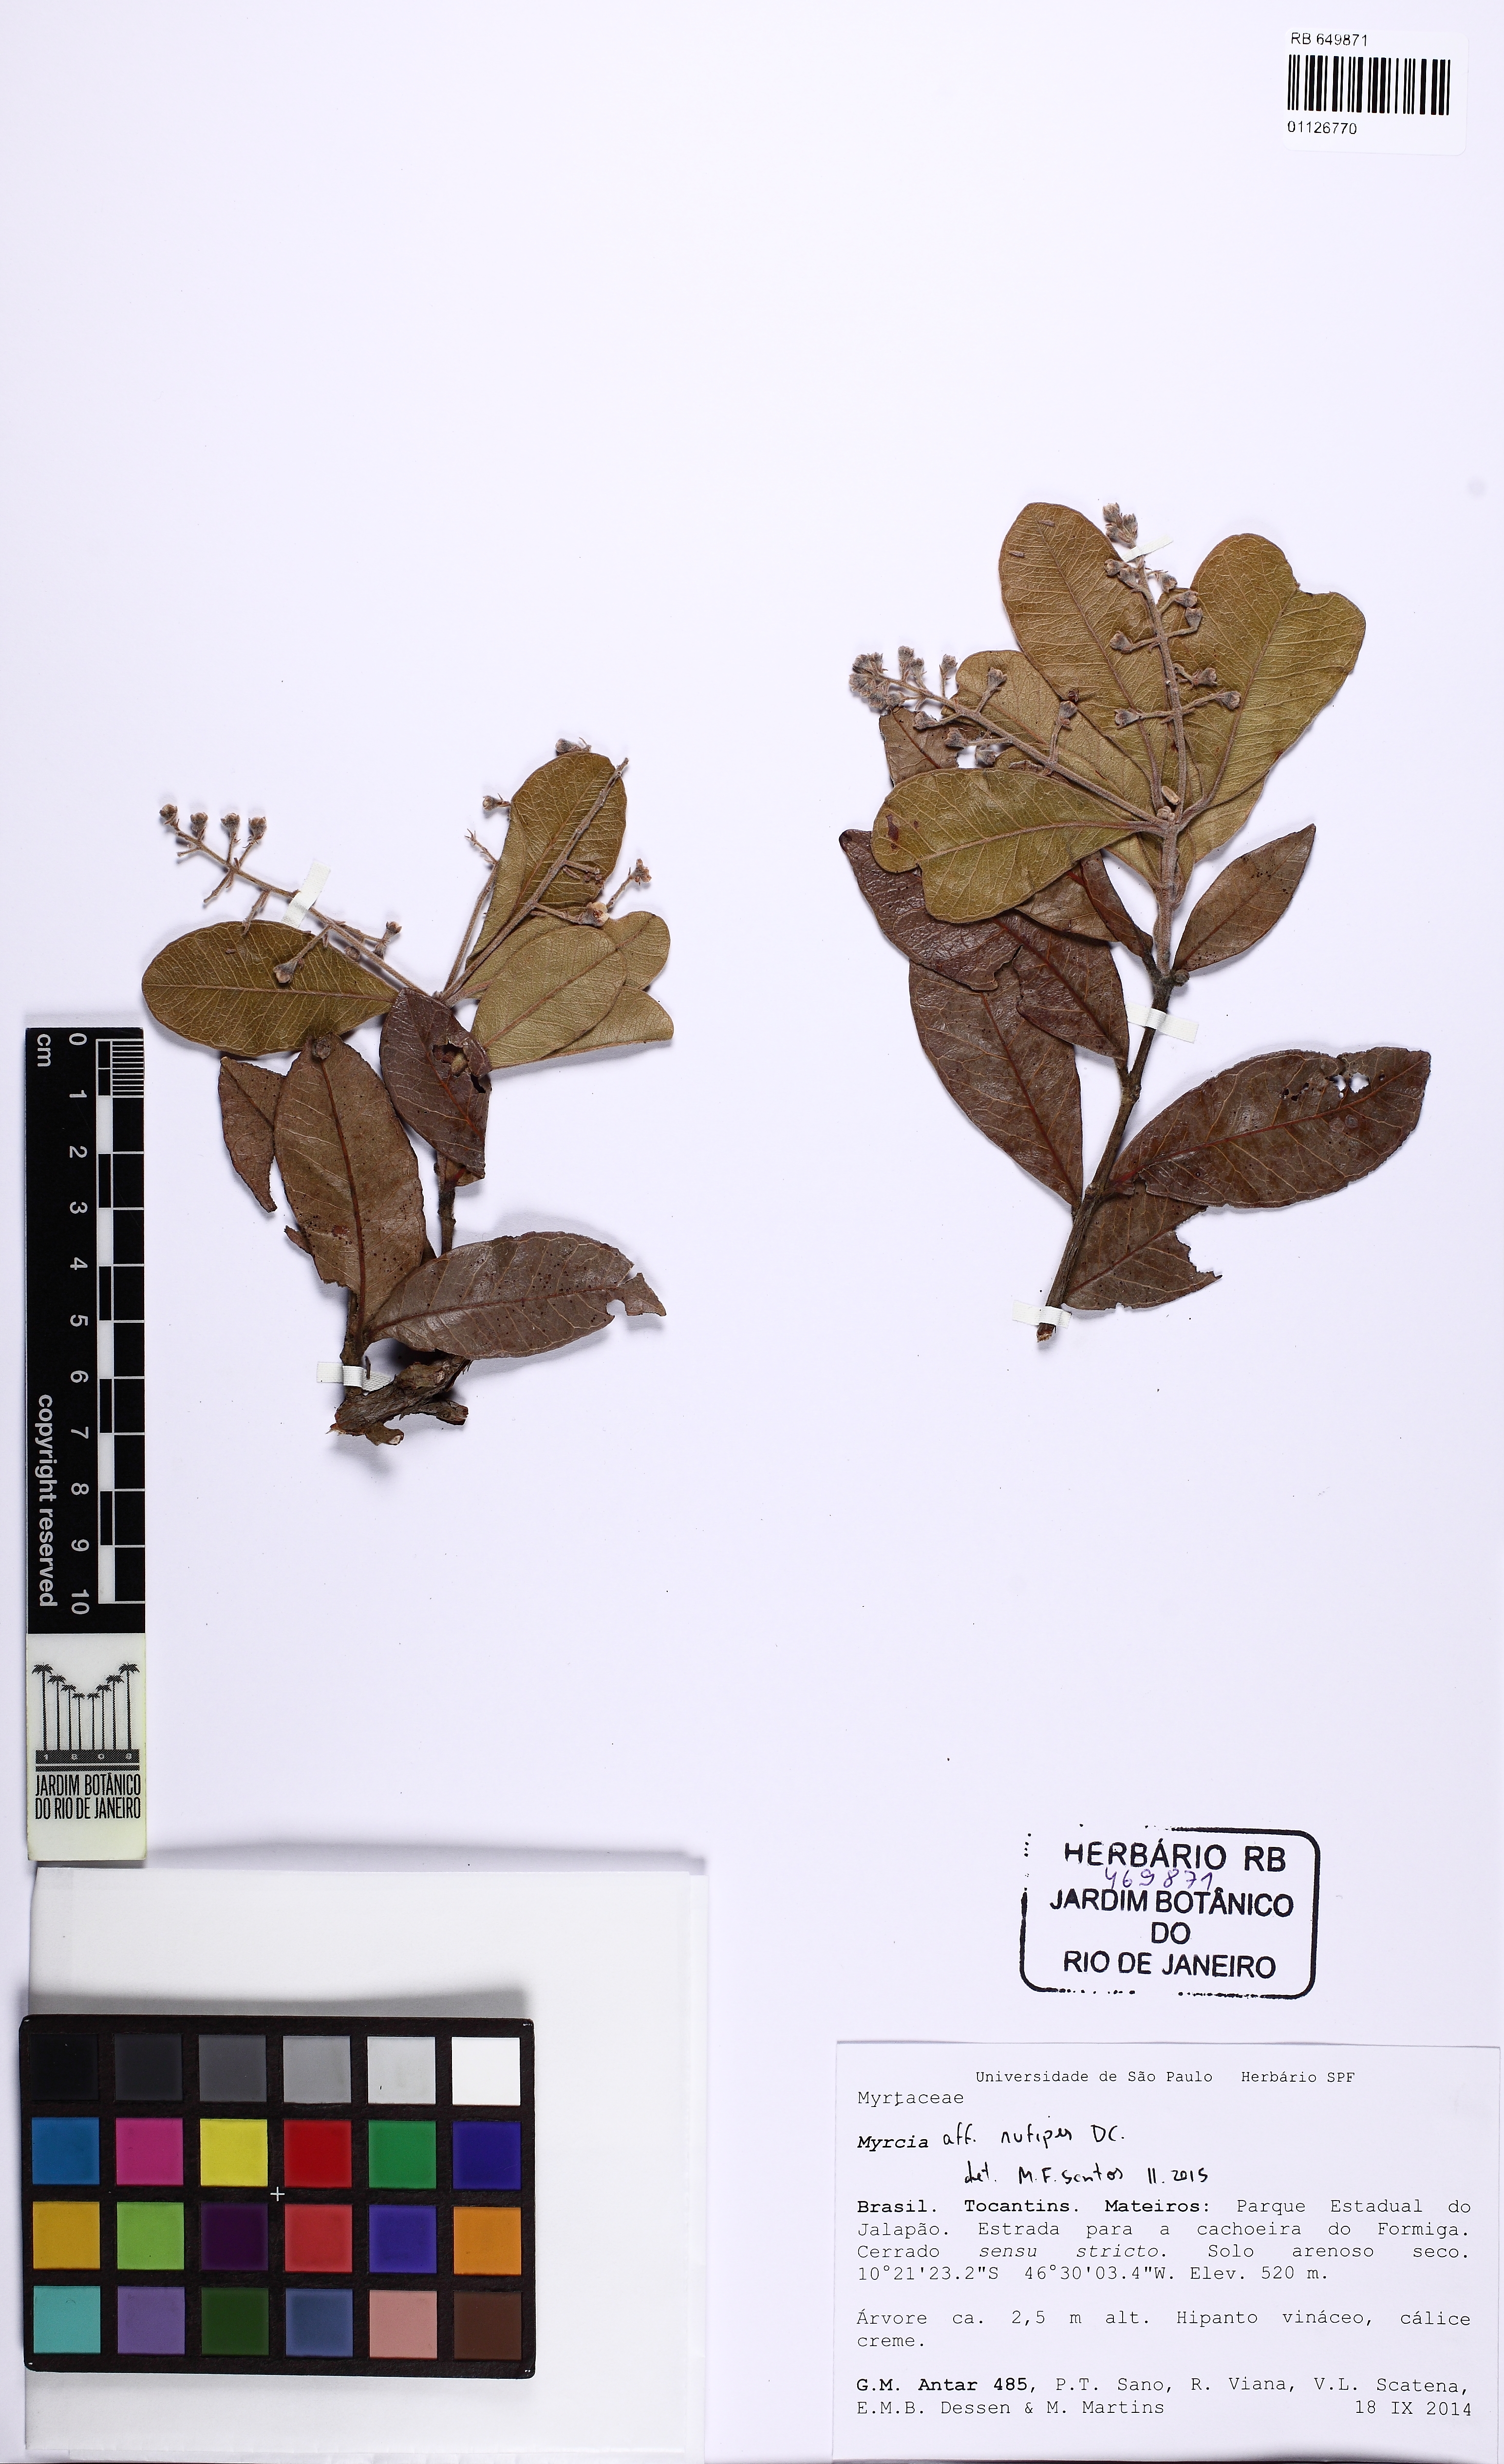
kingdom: Plantae
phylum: Tracheophyta
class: Magnoliopsida
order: Myrtales
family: Myrtaceae
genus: Myrcia
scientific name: Myrcia
